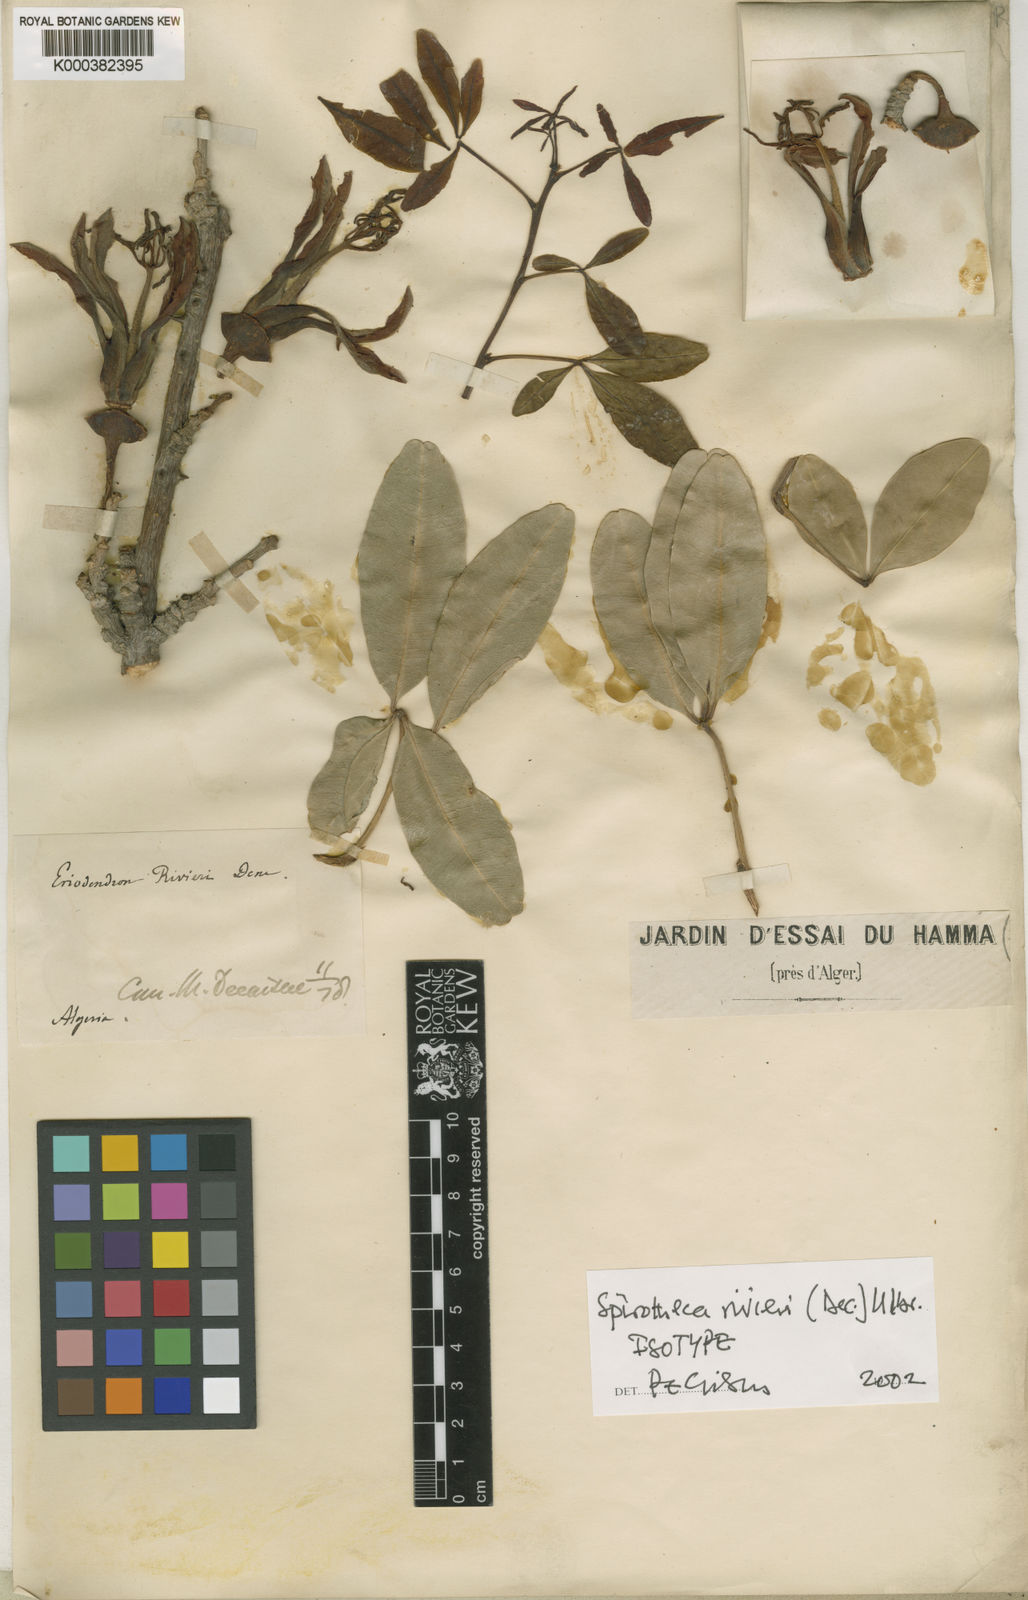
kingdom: Plantae
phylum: Tracheophyta
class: Magnoliopsida
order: Malvales
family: Malvaceae
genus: Spirotheca
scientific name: Spirotheca rivieri
